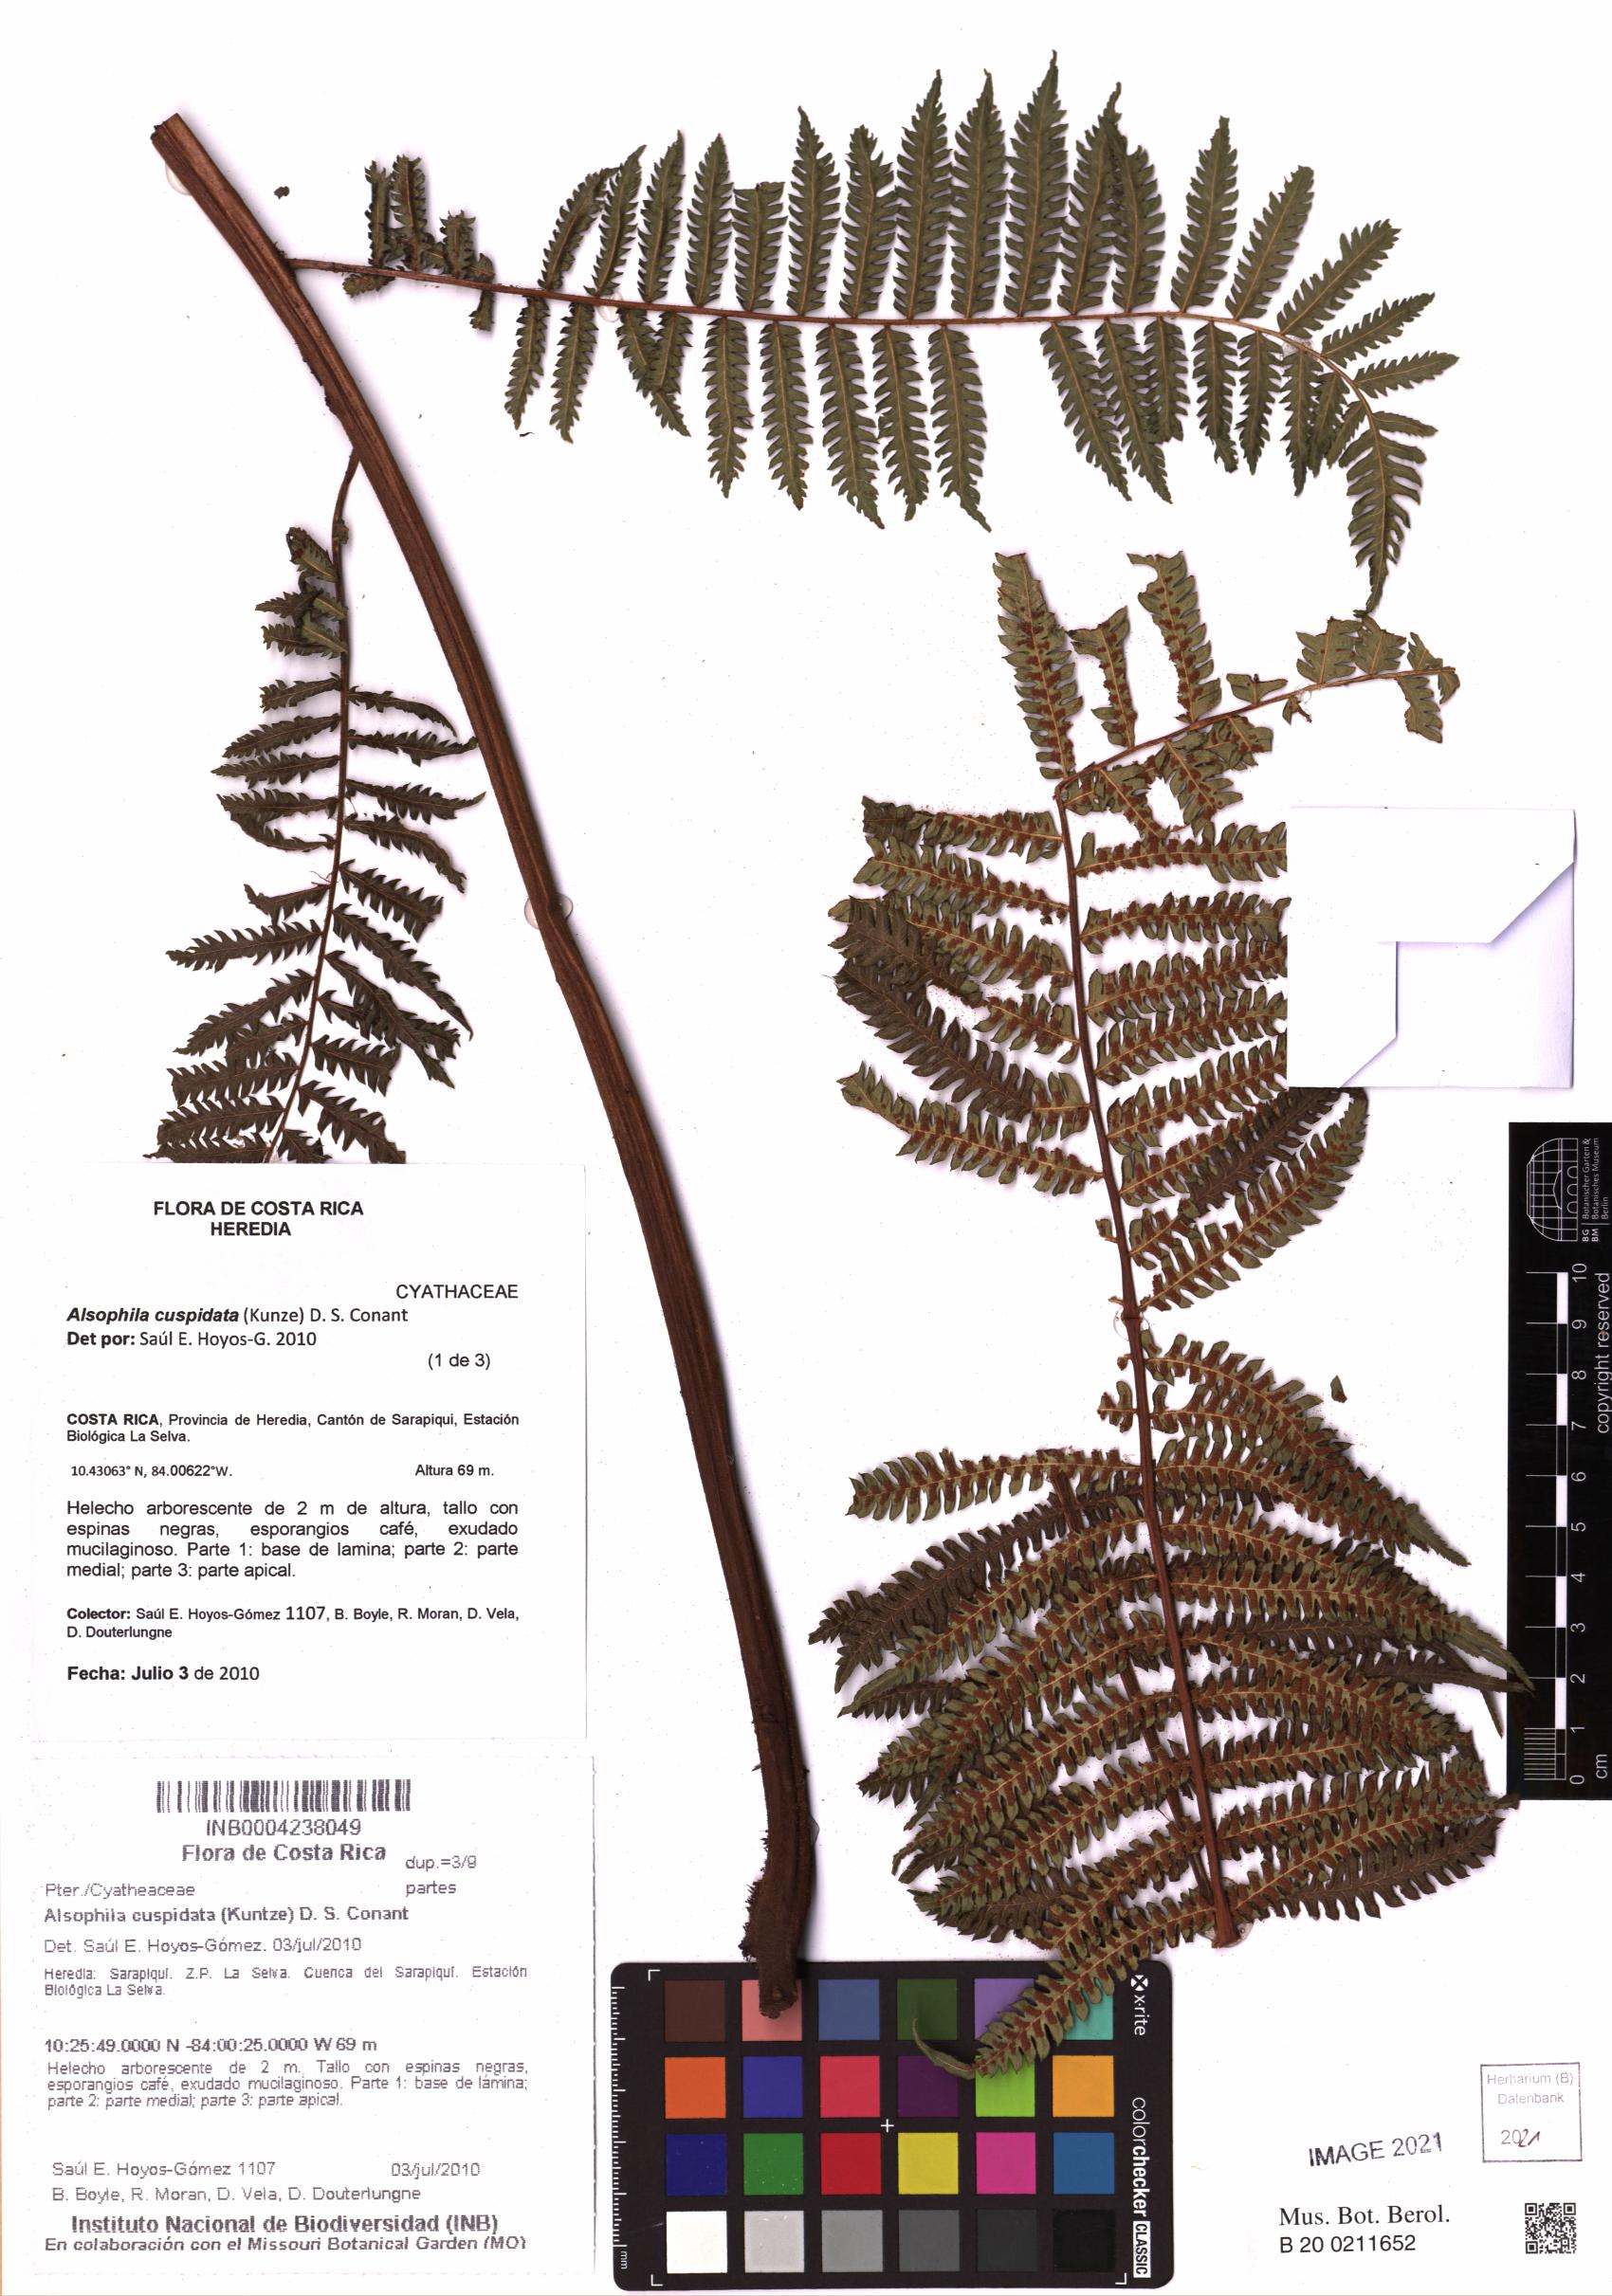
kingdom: Plantae
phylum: Tracheophyta
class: Polypodiopsida
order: Cyatheales
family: Cyatheaceae
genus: Alsophila
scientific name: Alsophila cuspidata
